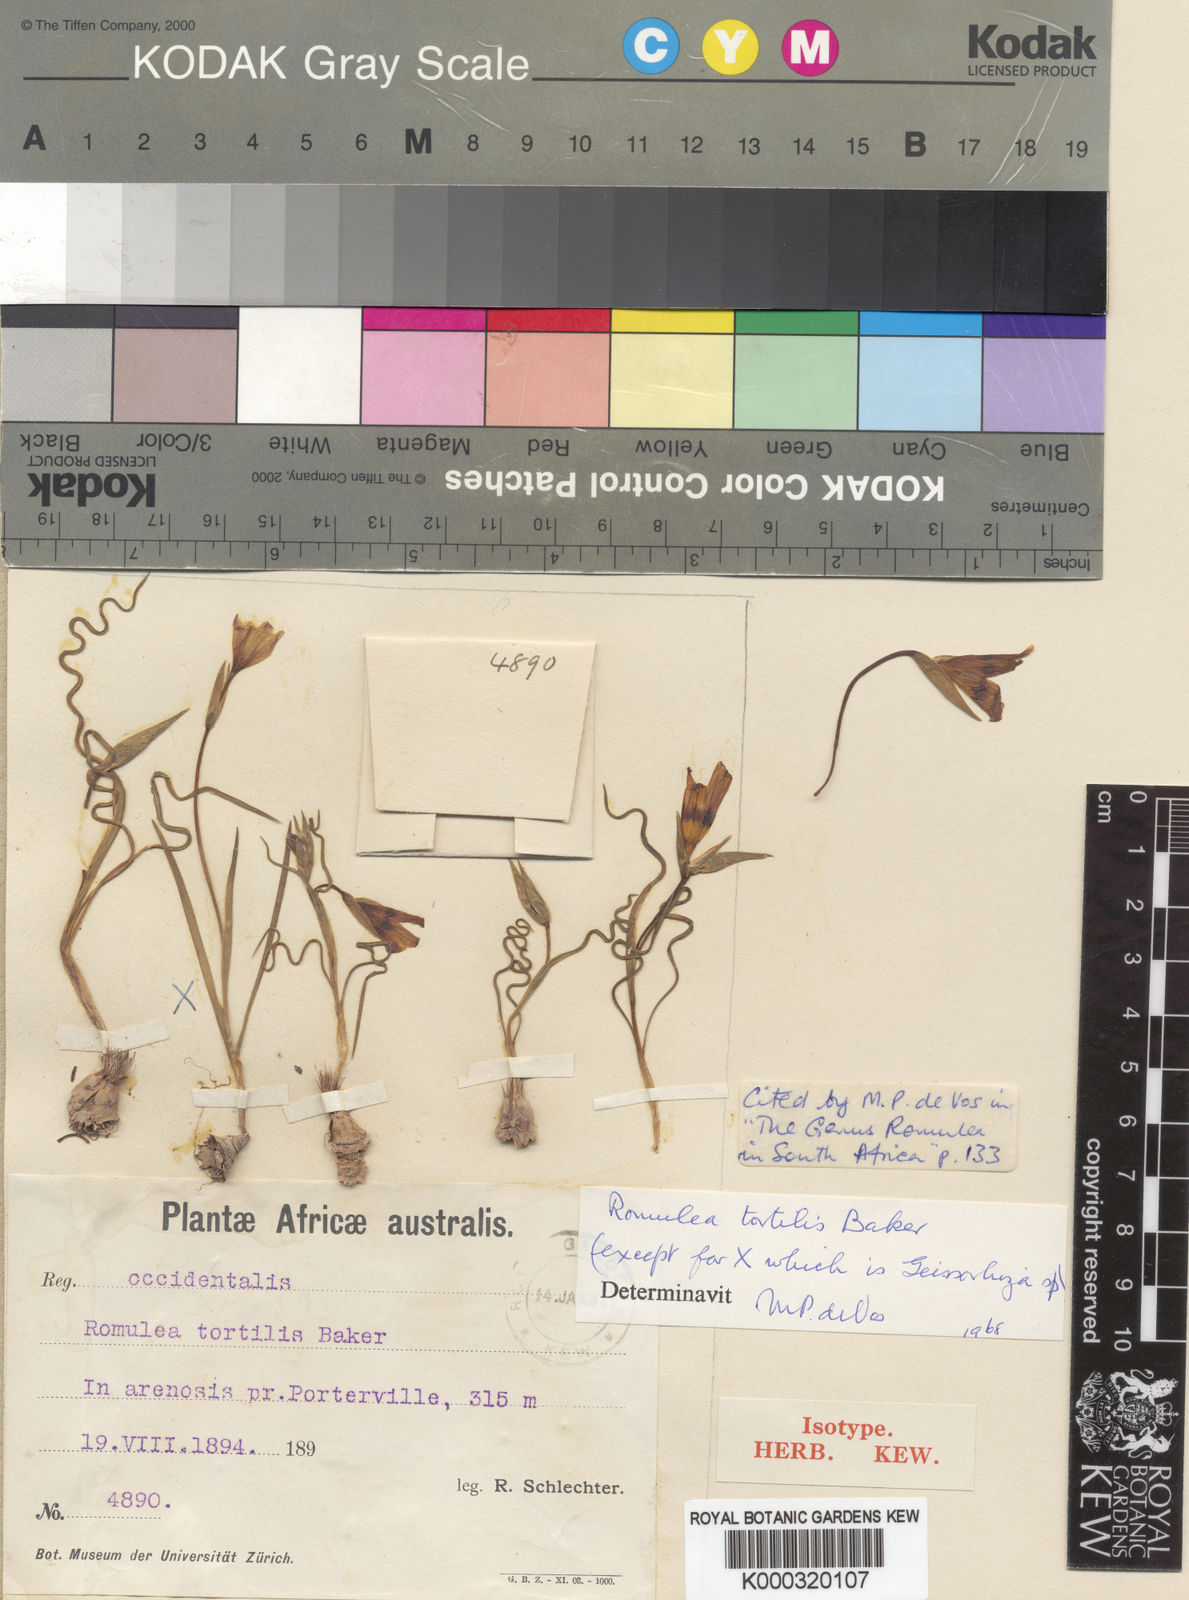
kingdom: Plantae
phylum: Tracheophyta
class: Liliopsida
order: Asparagales
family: Iridaceae
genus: Romulea
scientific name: Romulea tortilis
